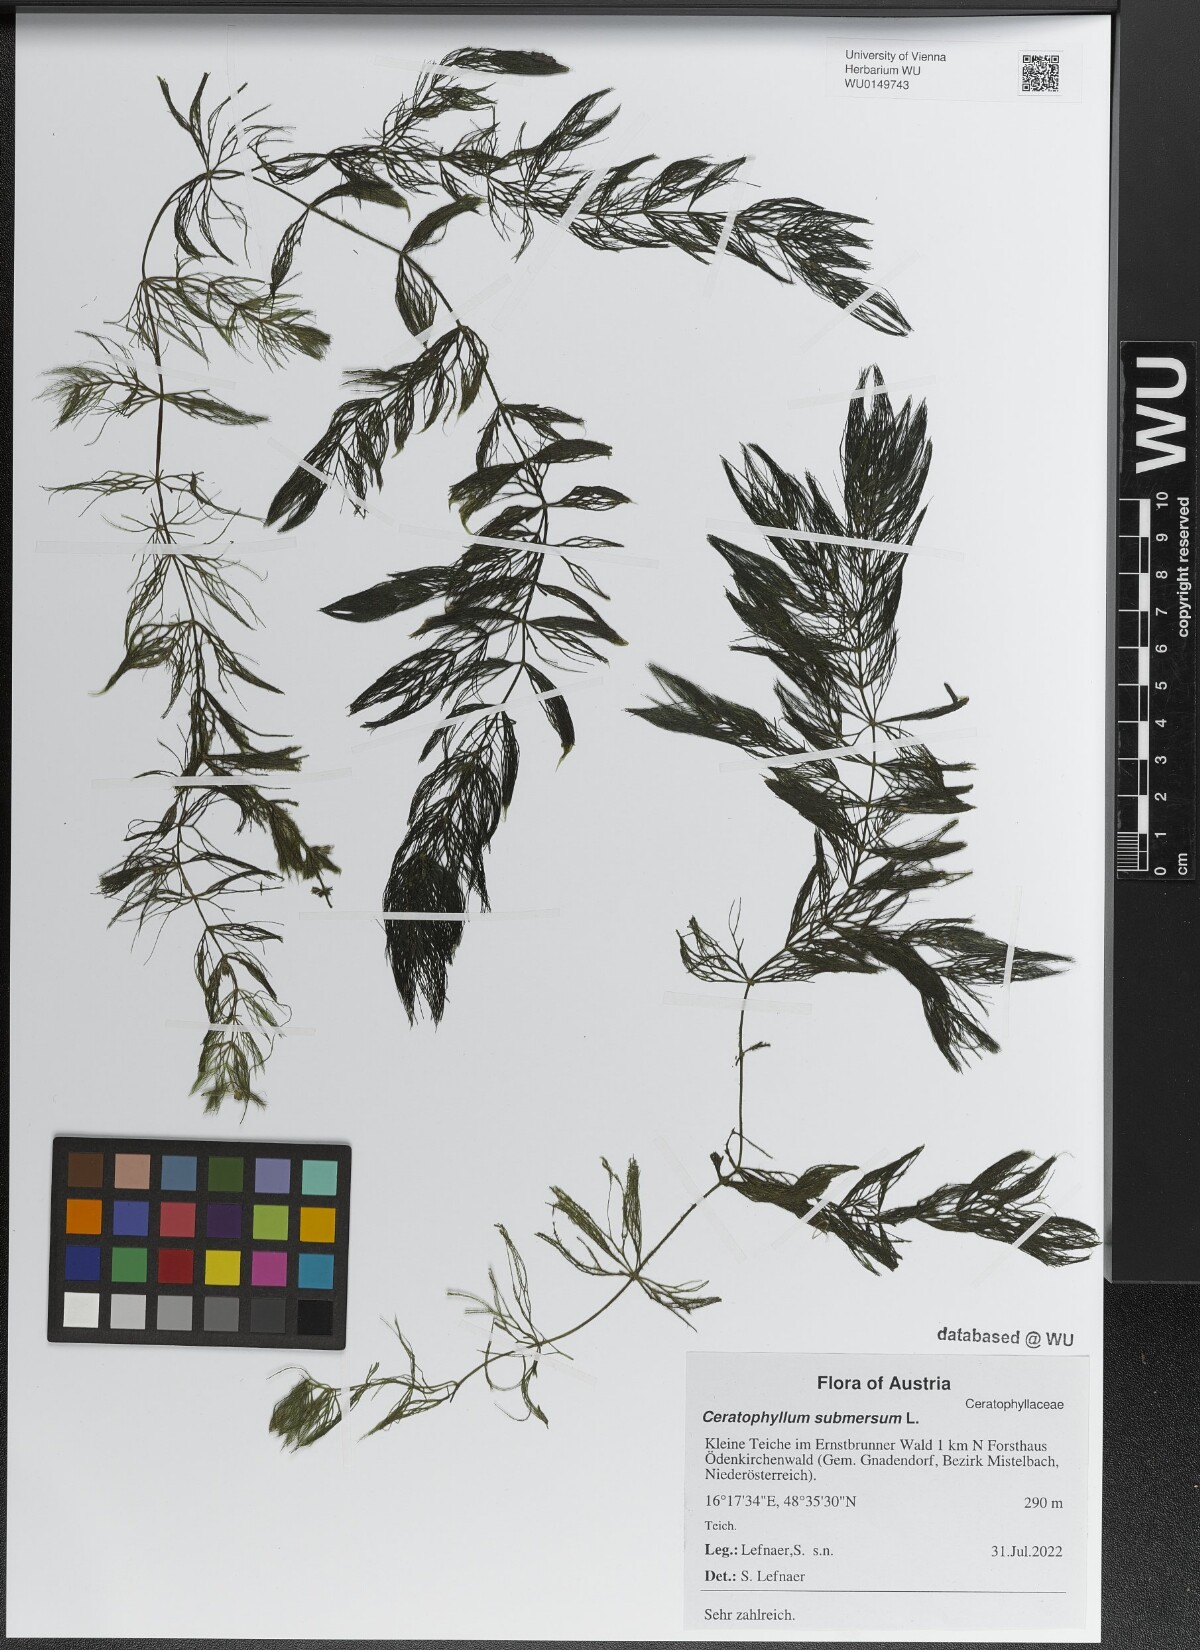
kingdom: Plantae
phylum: Tracheophyta
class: Magnoliopsida
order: Ceratophyllales
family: Ceratophyllaceae
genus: Ceratophyllum
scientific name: Ceratophyllum submersum
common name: Soft hornwort
